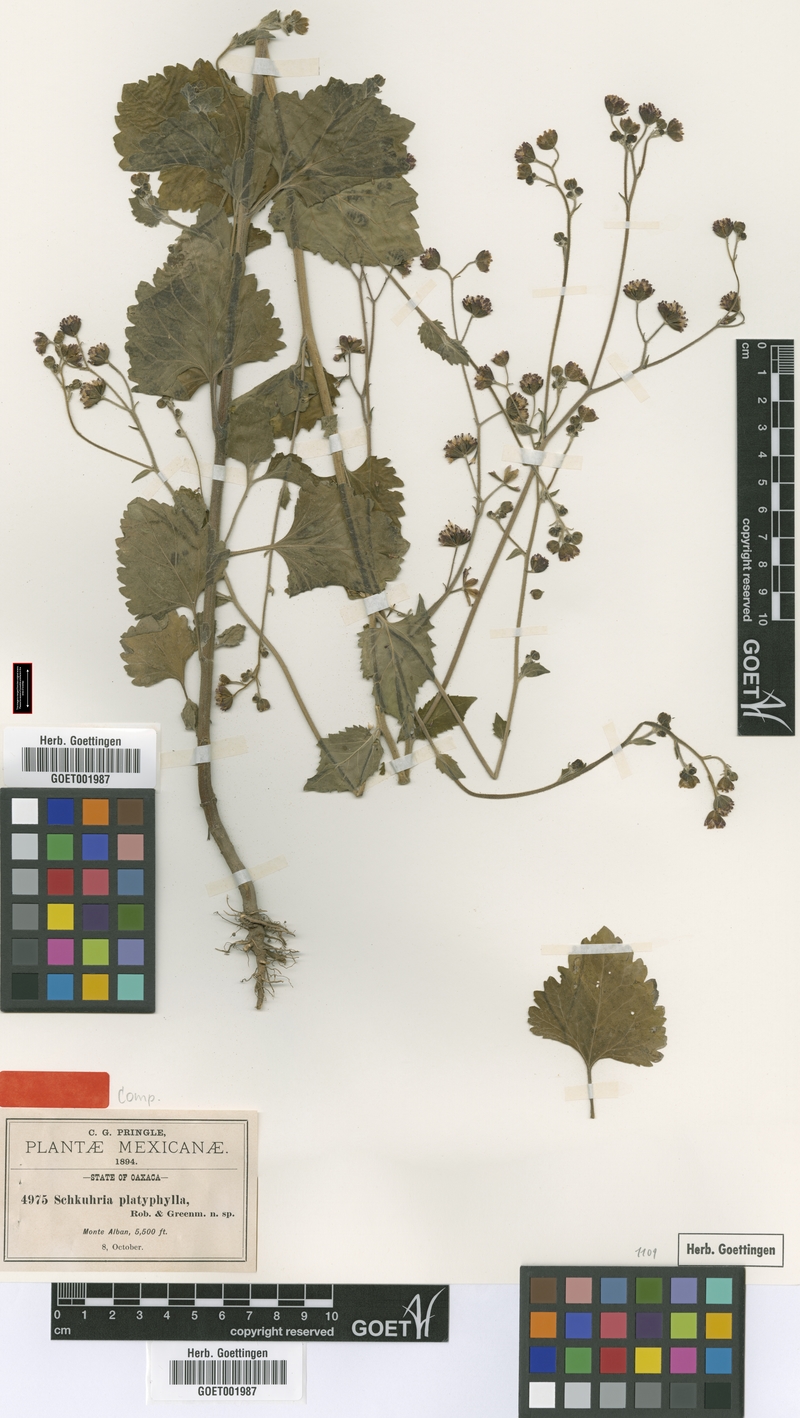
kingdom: Plantae
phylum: Tracheophyta
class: Magnoliopsida
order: Asterales
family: Asteraceae
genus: Florestina
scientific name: Florestina platyphylla
